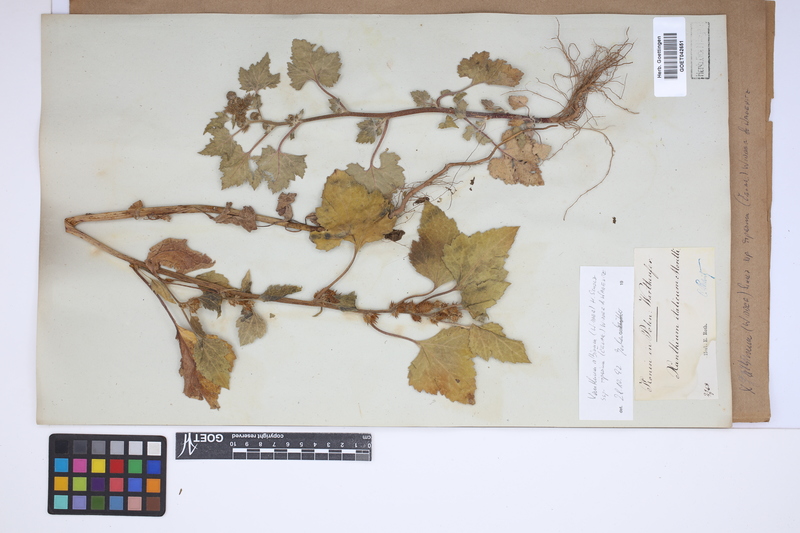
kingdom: Plantae
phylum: Tracheophyta
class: Magnoliopsida
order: Asterales
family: Asteraceae
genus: Xanthium
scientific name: Xanthium orientale
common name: Californian burr
